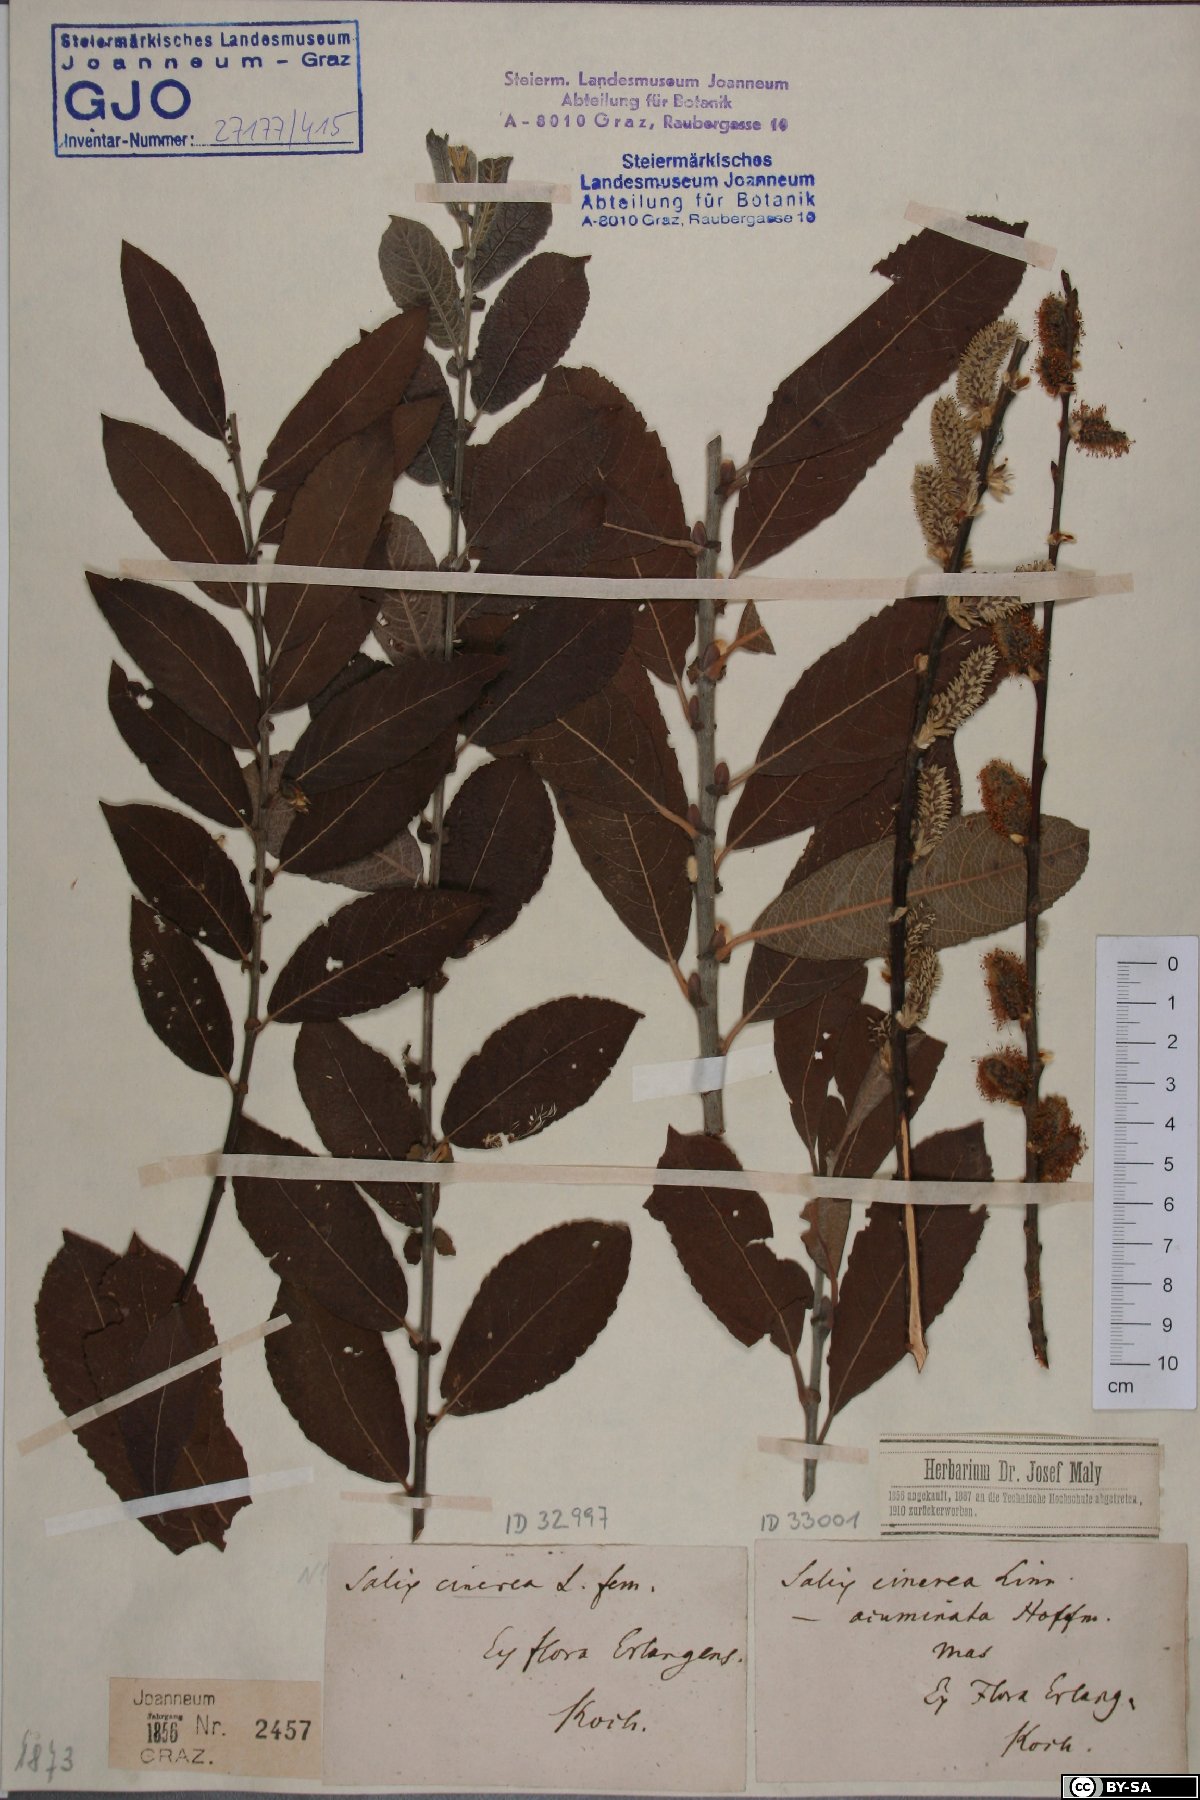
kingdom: Plantae
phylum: Tracheophyta
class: Magnoliopsida
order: Malpighiales
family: Salicaceae
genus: Salix
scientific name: Salix cinerea
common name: Common sallow
